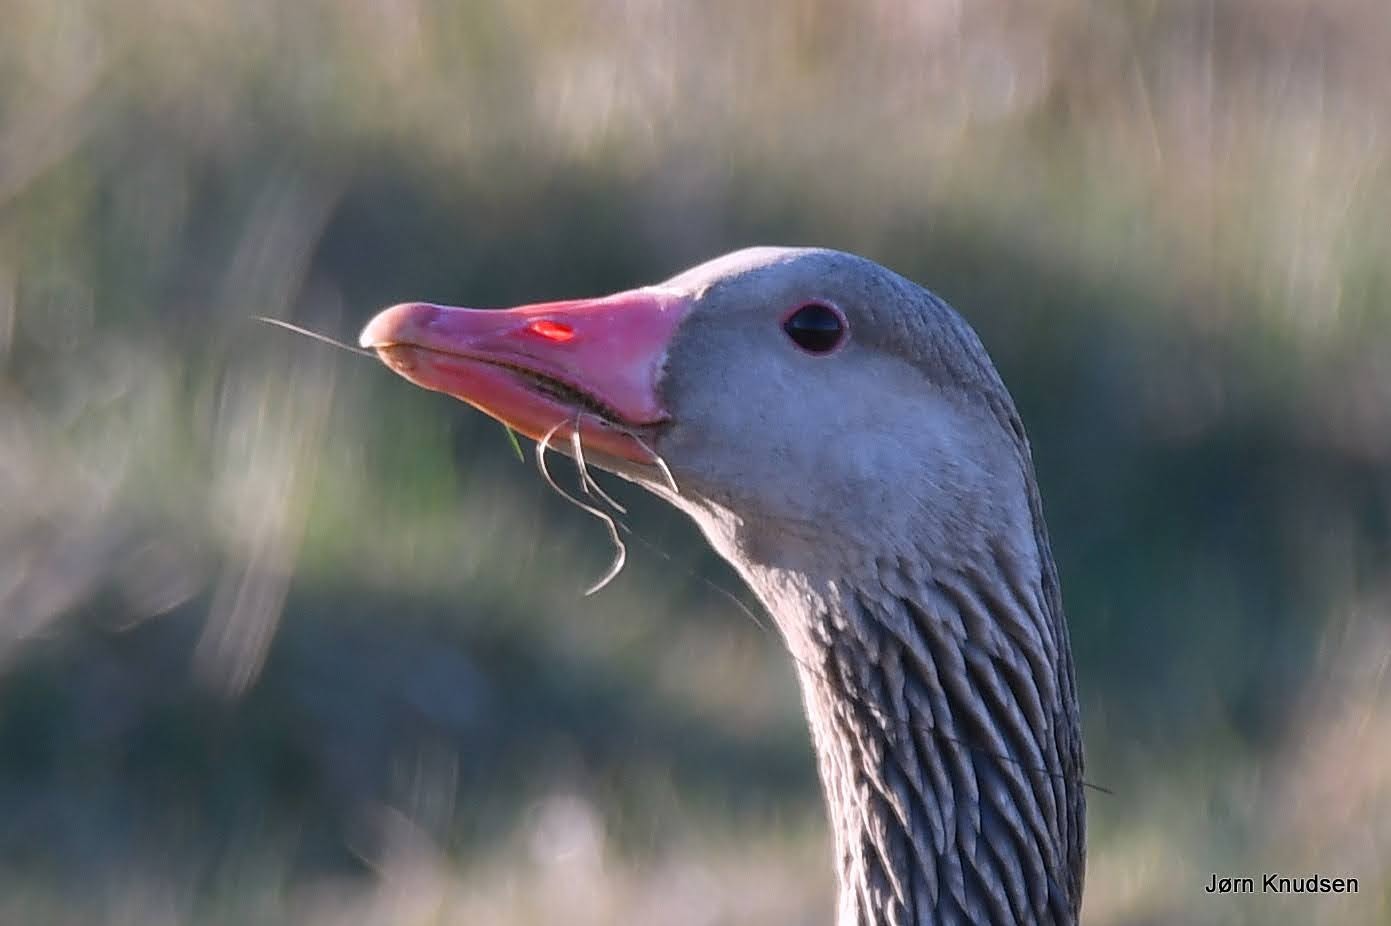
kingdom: Animalia
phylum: Chordata
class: Aves
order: Anseriformes
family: Anatidae
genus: Anser
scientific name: Anser anser
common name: Grågås
